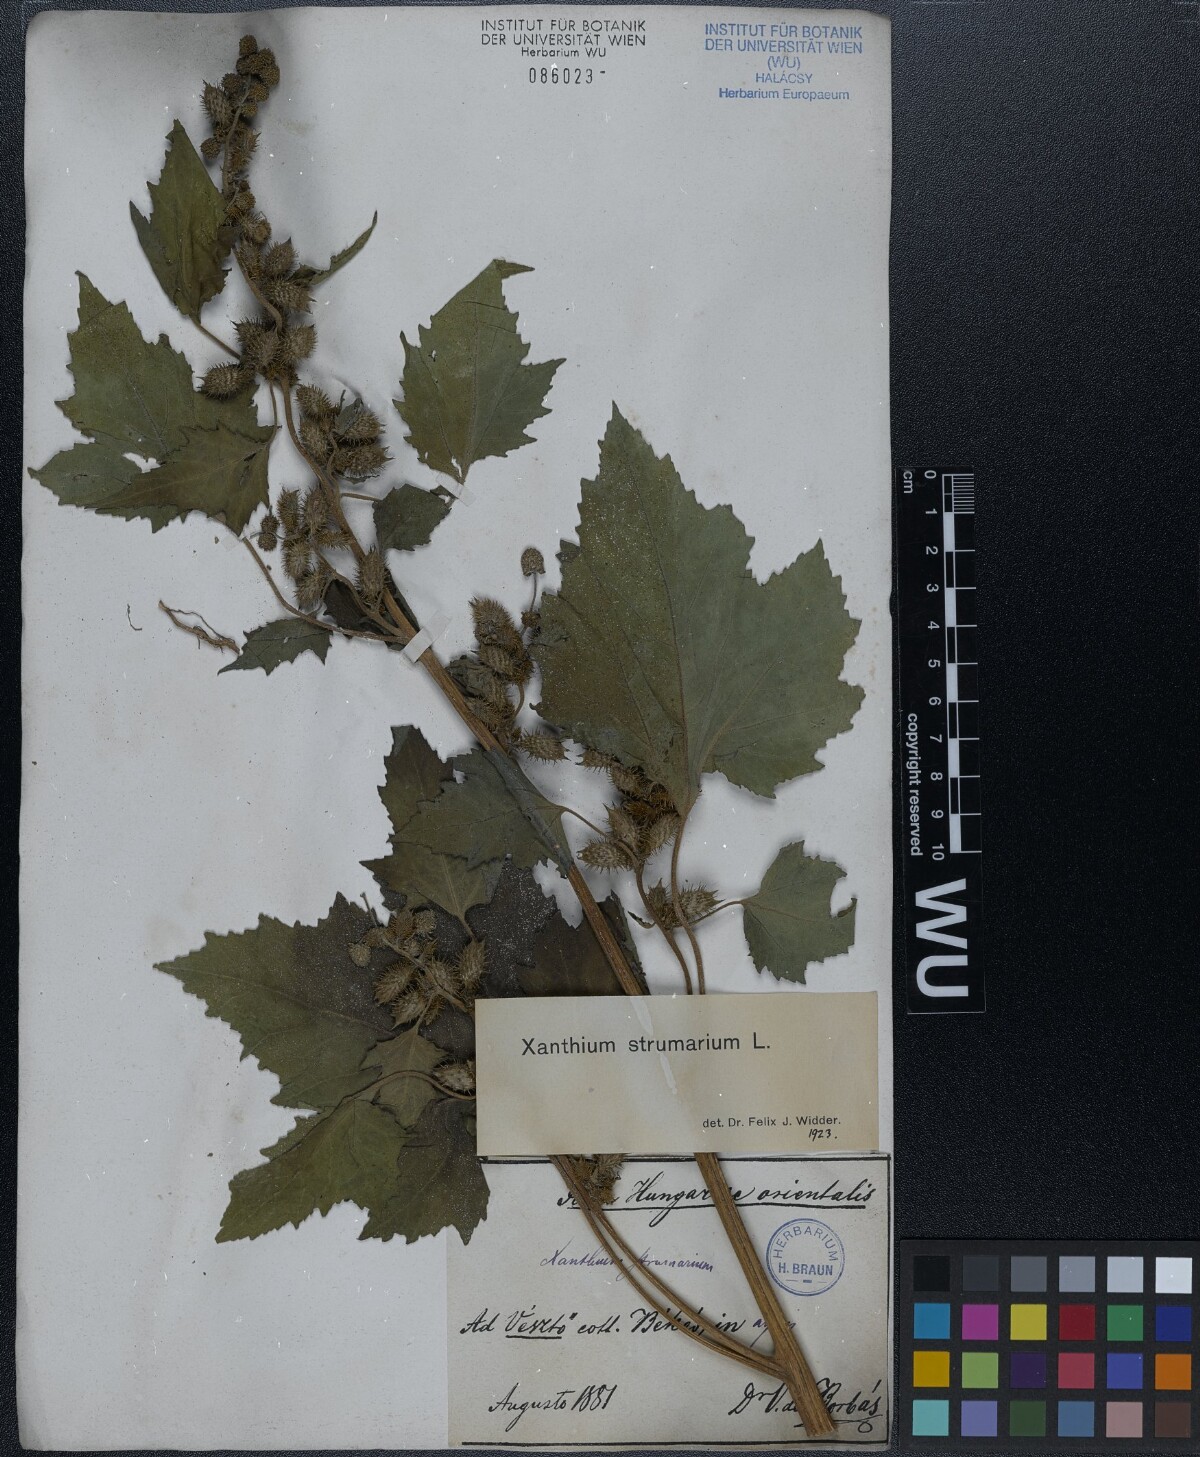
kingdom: Plantae
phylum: Tracheophyta
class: Magnoliopsida
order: Asterales
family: Asteraceae
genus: Xanthium
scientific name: Xanthium strumarium
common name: Rough cocklebur
